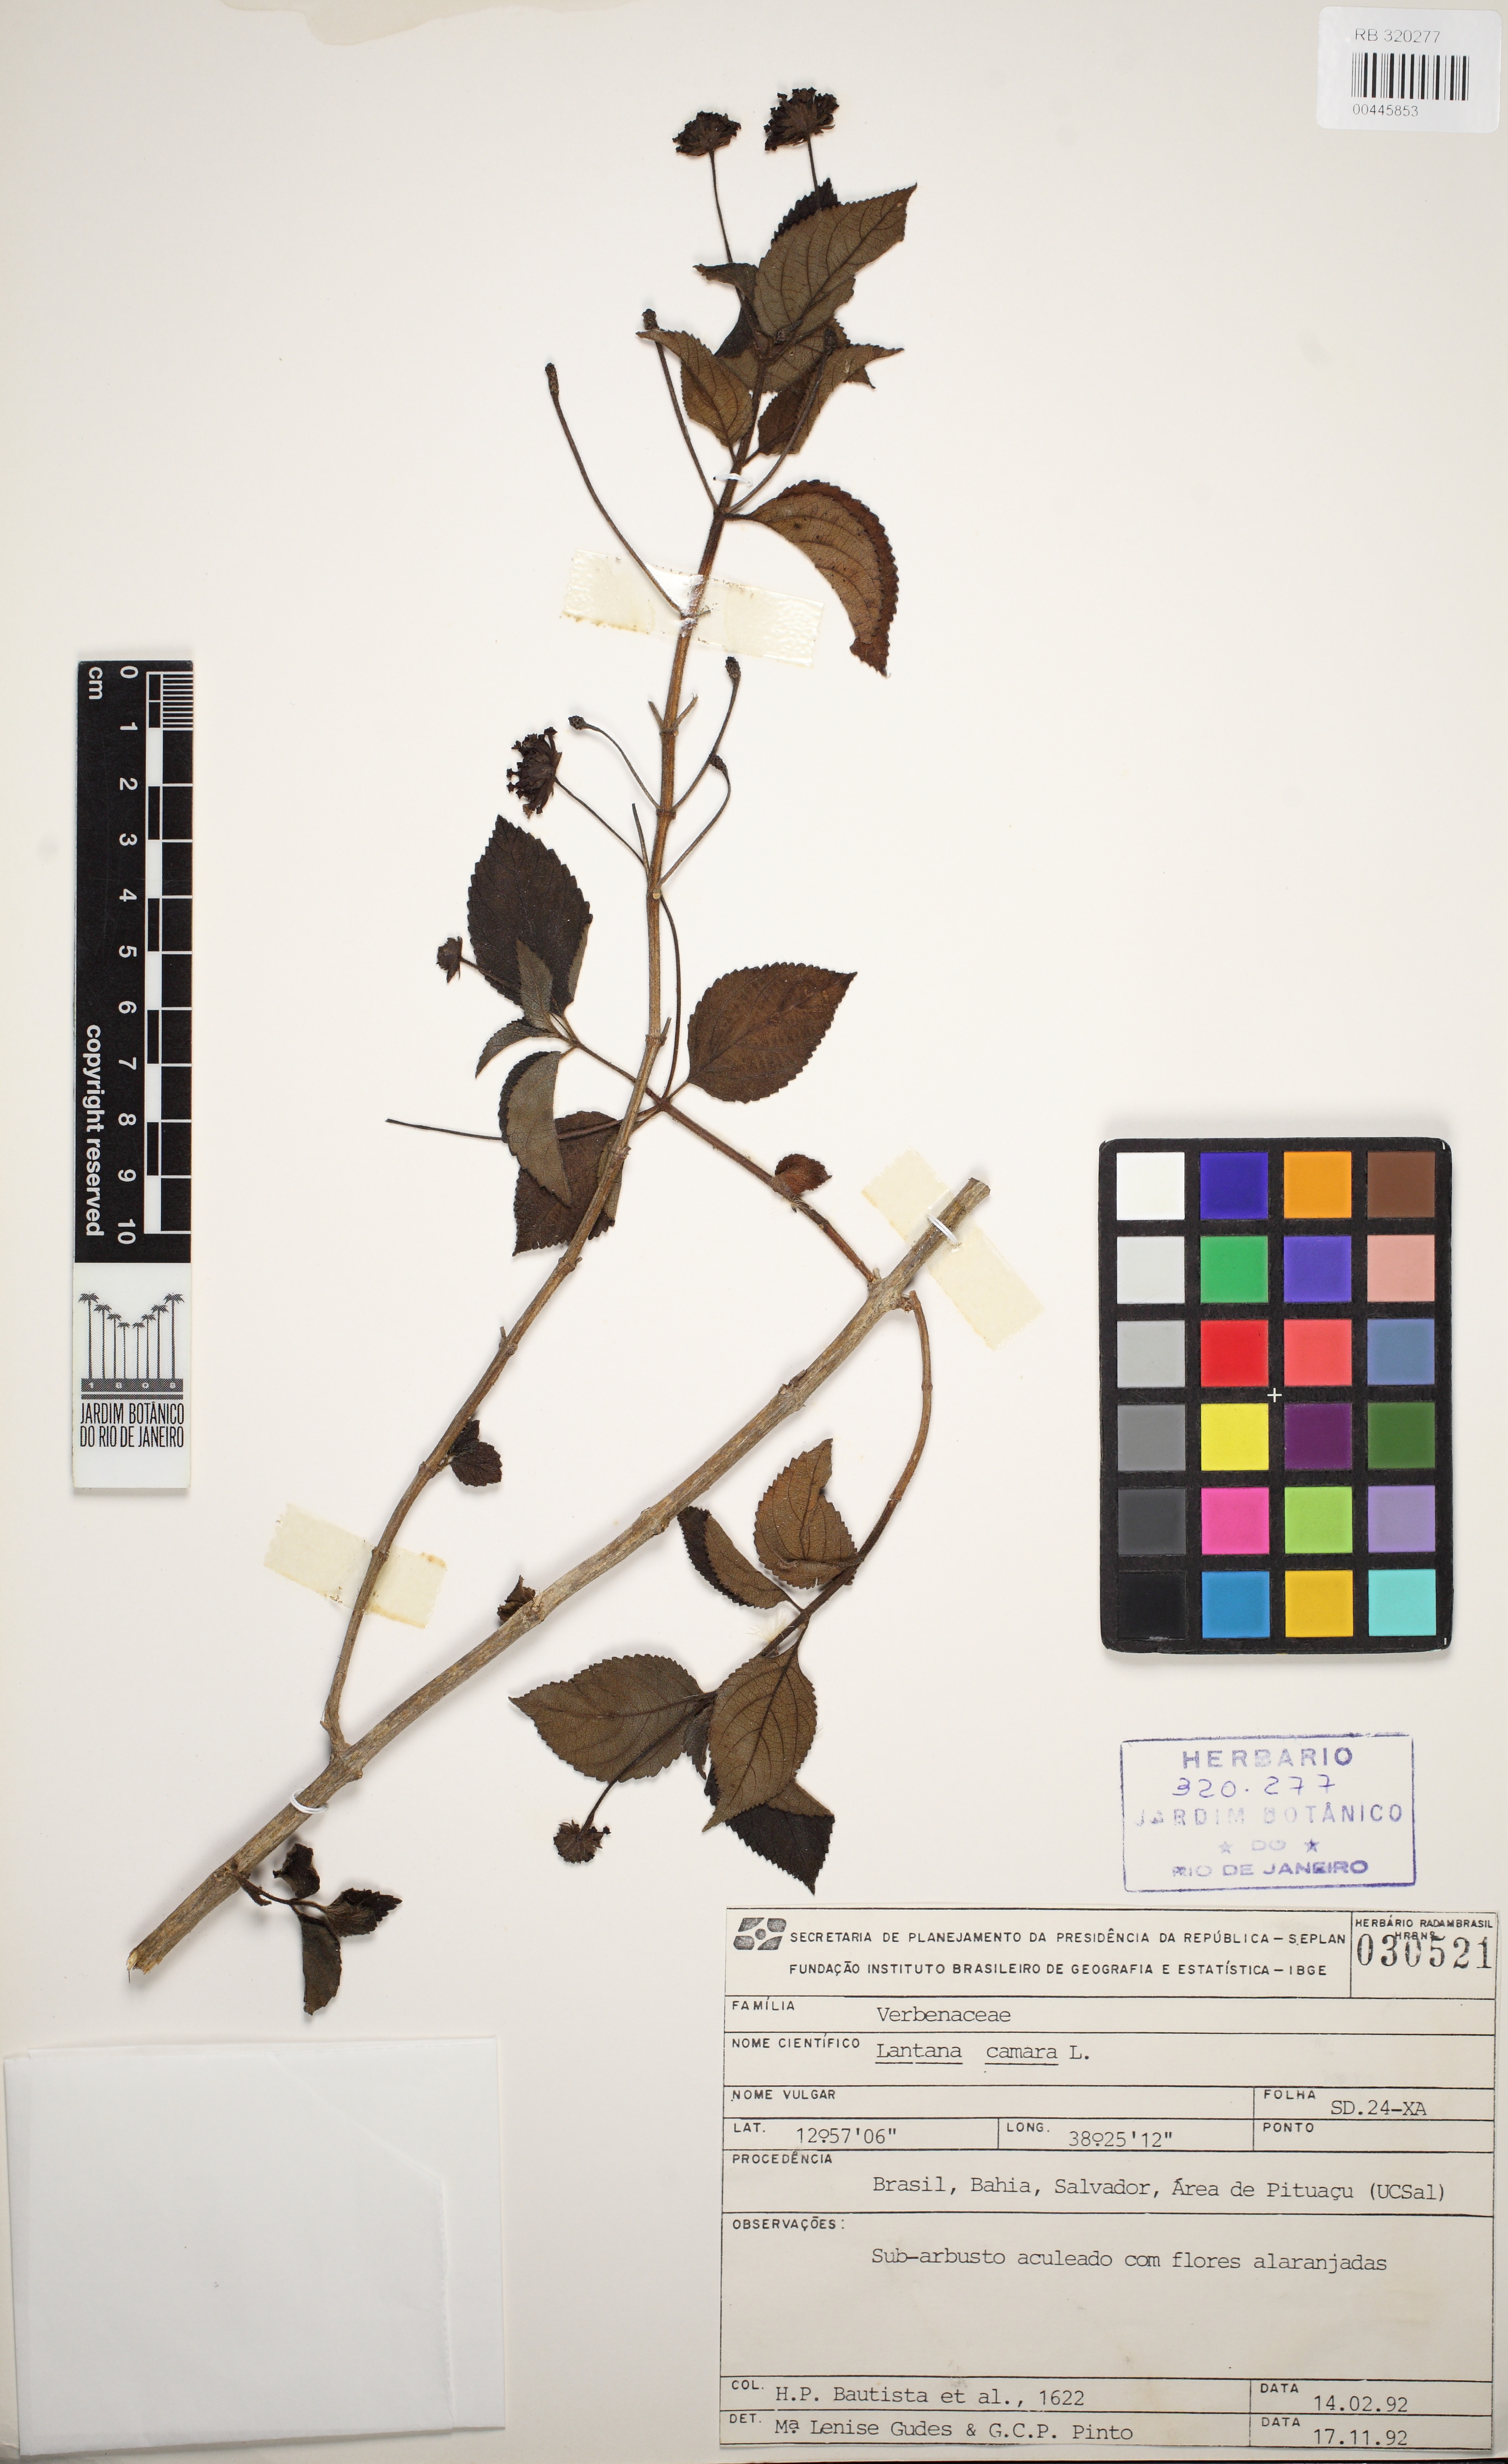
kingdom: Plantae
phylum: Tracheophyta
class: Magnoliopsida
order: Lamiales
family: Verbenaceae
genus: Lantana
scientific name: Lantana camara
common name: Lantana
